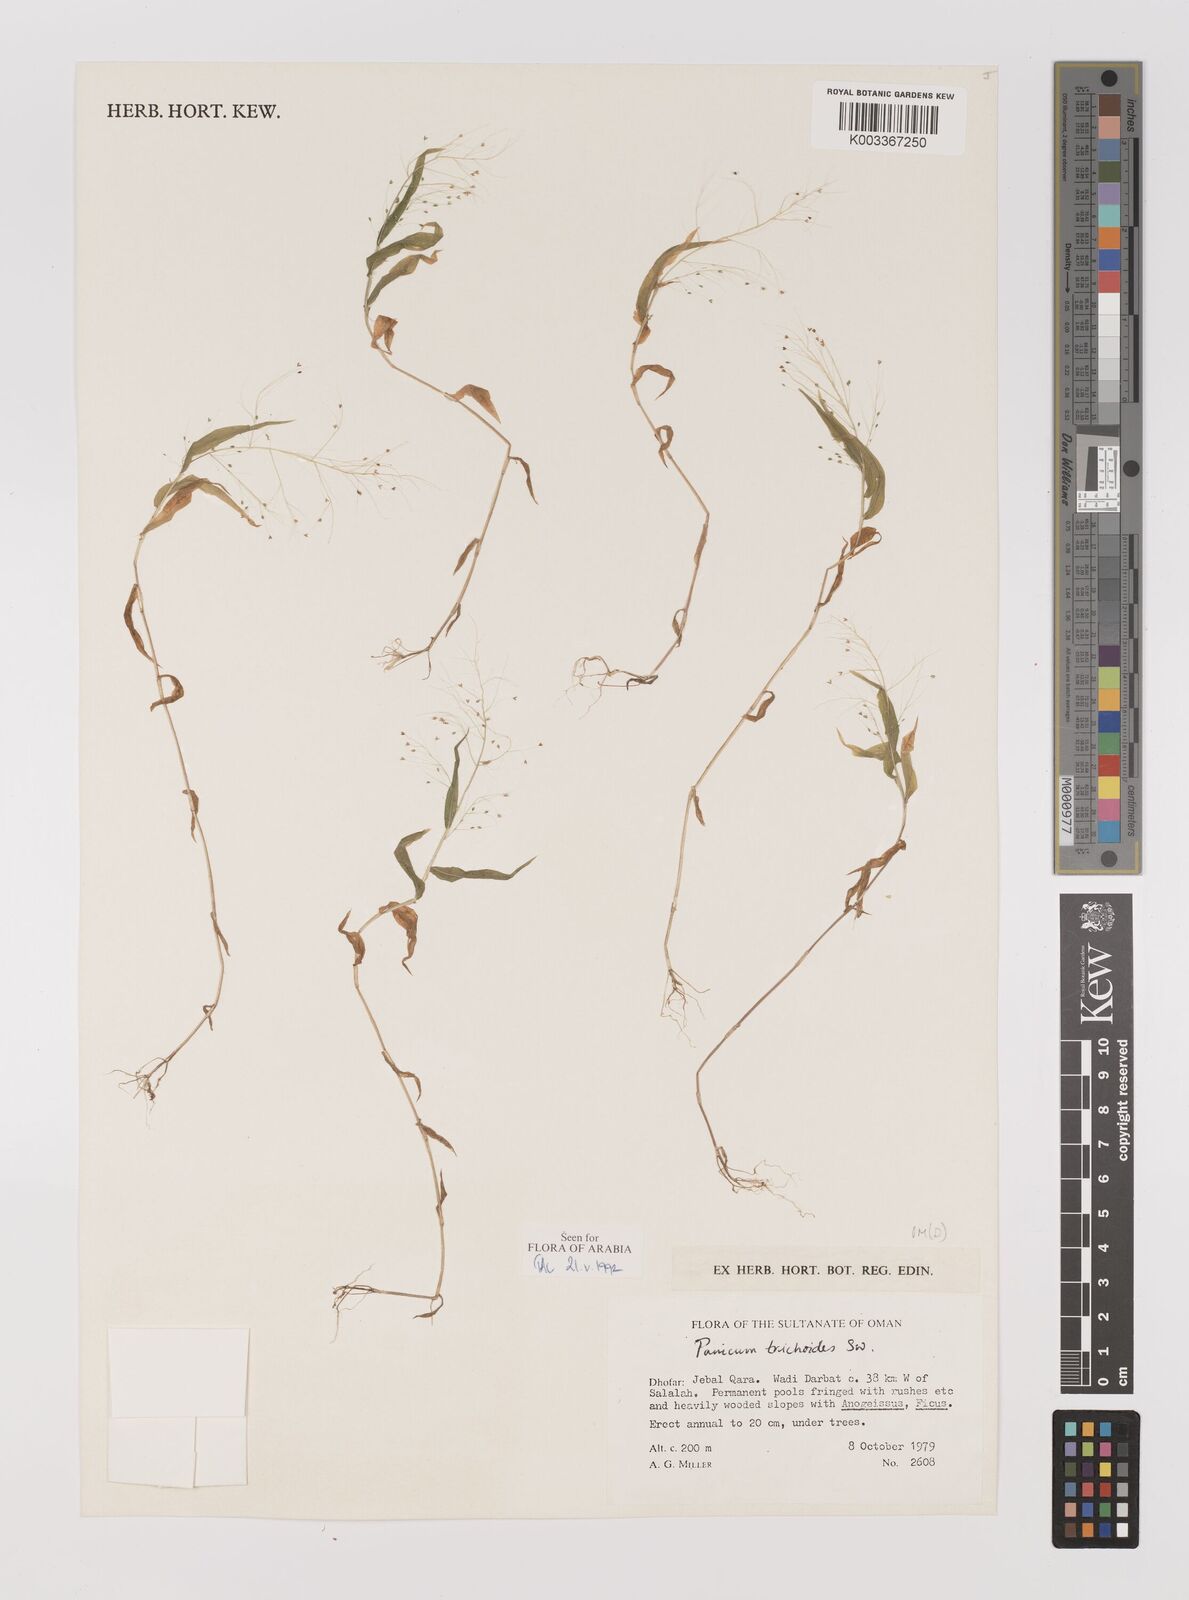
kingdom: Plantae
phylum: Tracheophyta
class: Liliopsida
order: Poales
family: Poaceae
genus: Panicum
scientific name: Panicum trichoides
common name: Tickle grass
